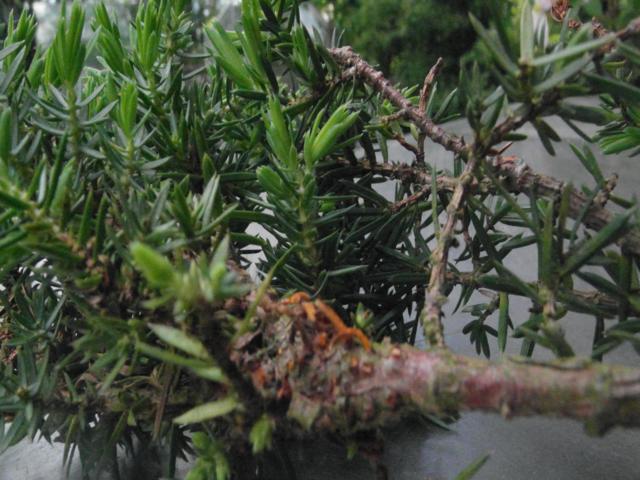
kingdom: Fungi
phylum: Basidiomycota
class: Pucciniomycetes
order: Pucciniales
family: Gymnosporangiaceae
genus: Gymnosporangium
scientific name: Gymnosporangium clavariiforme
